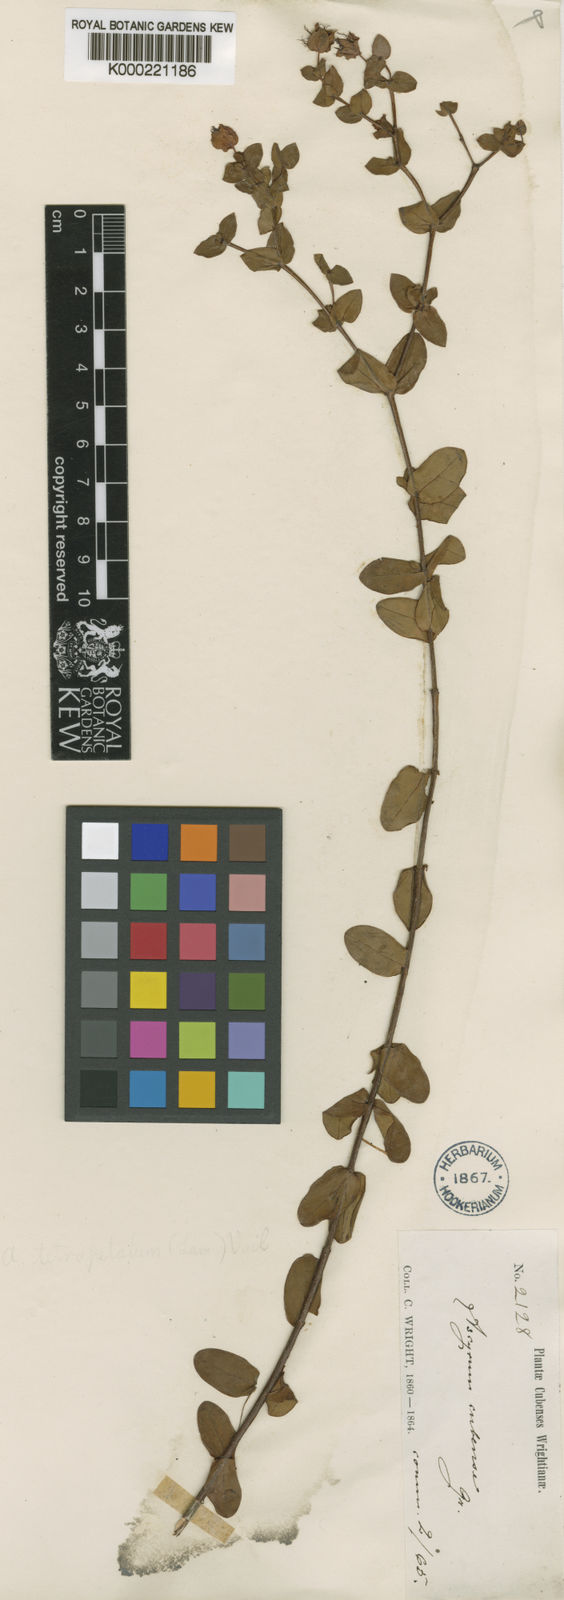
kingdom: Plantae
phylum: Tracheophyta
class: Magnoliopsida
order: Malpighiales
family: Hypericaceae
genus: Hypericum
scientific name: Hypericum nitidum
